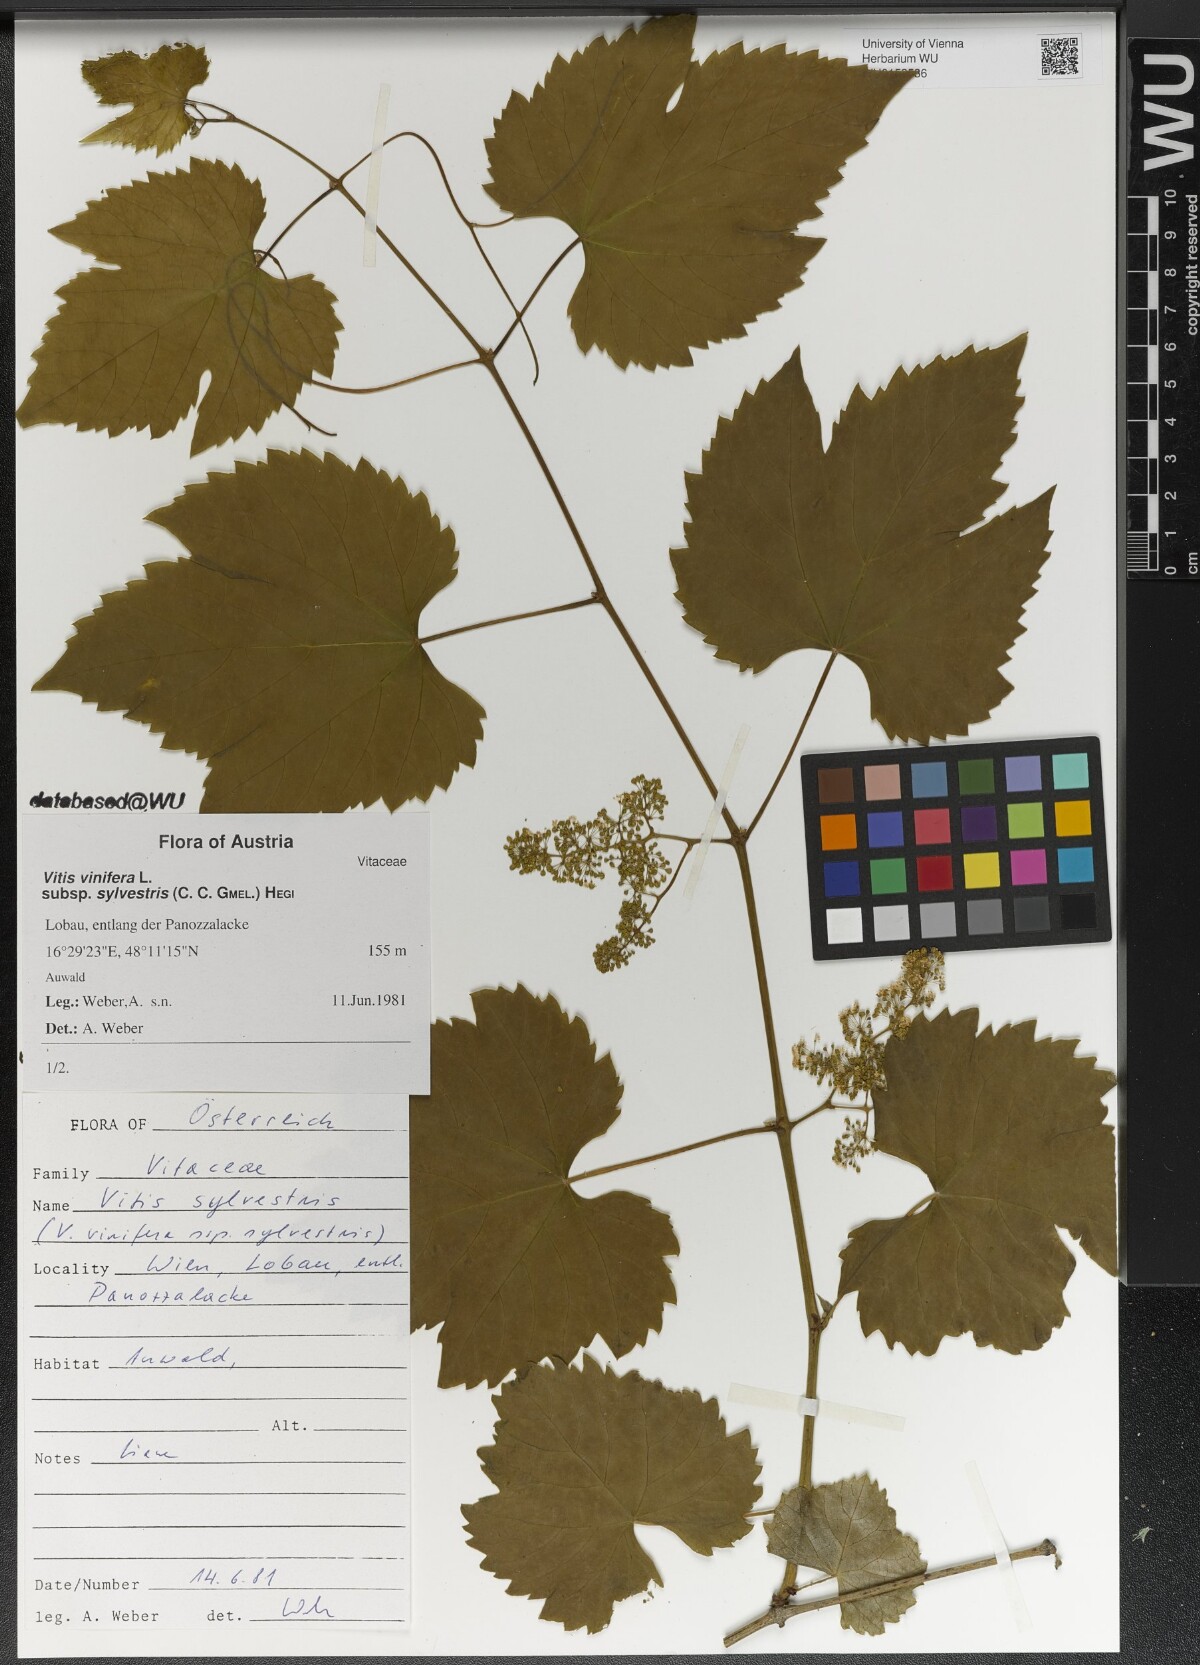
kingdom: Plantae
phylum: Tracheophyta
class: Magnoliopsida
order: Vitales
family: Vitaceae
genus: Vitis
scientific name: Vitis gmelinii
